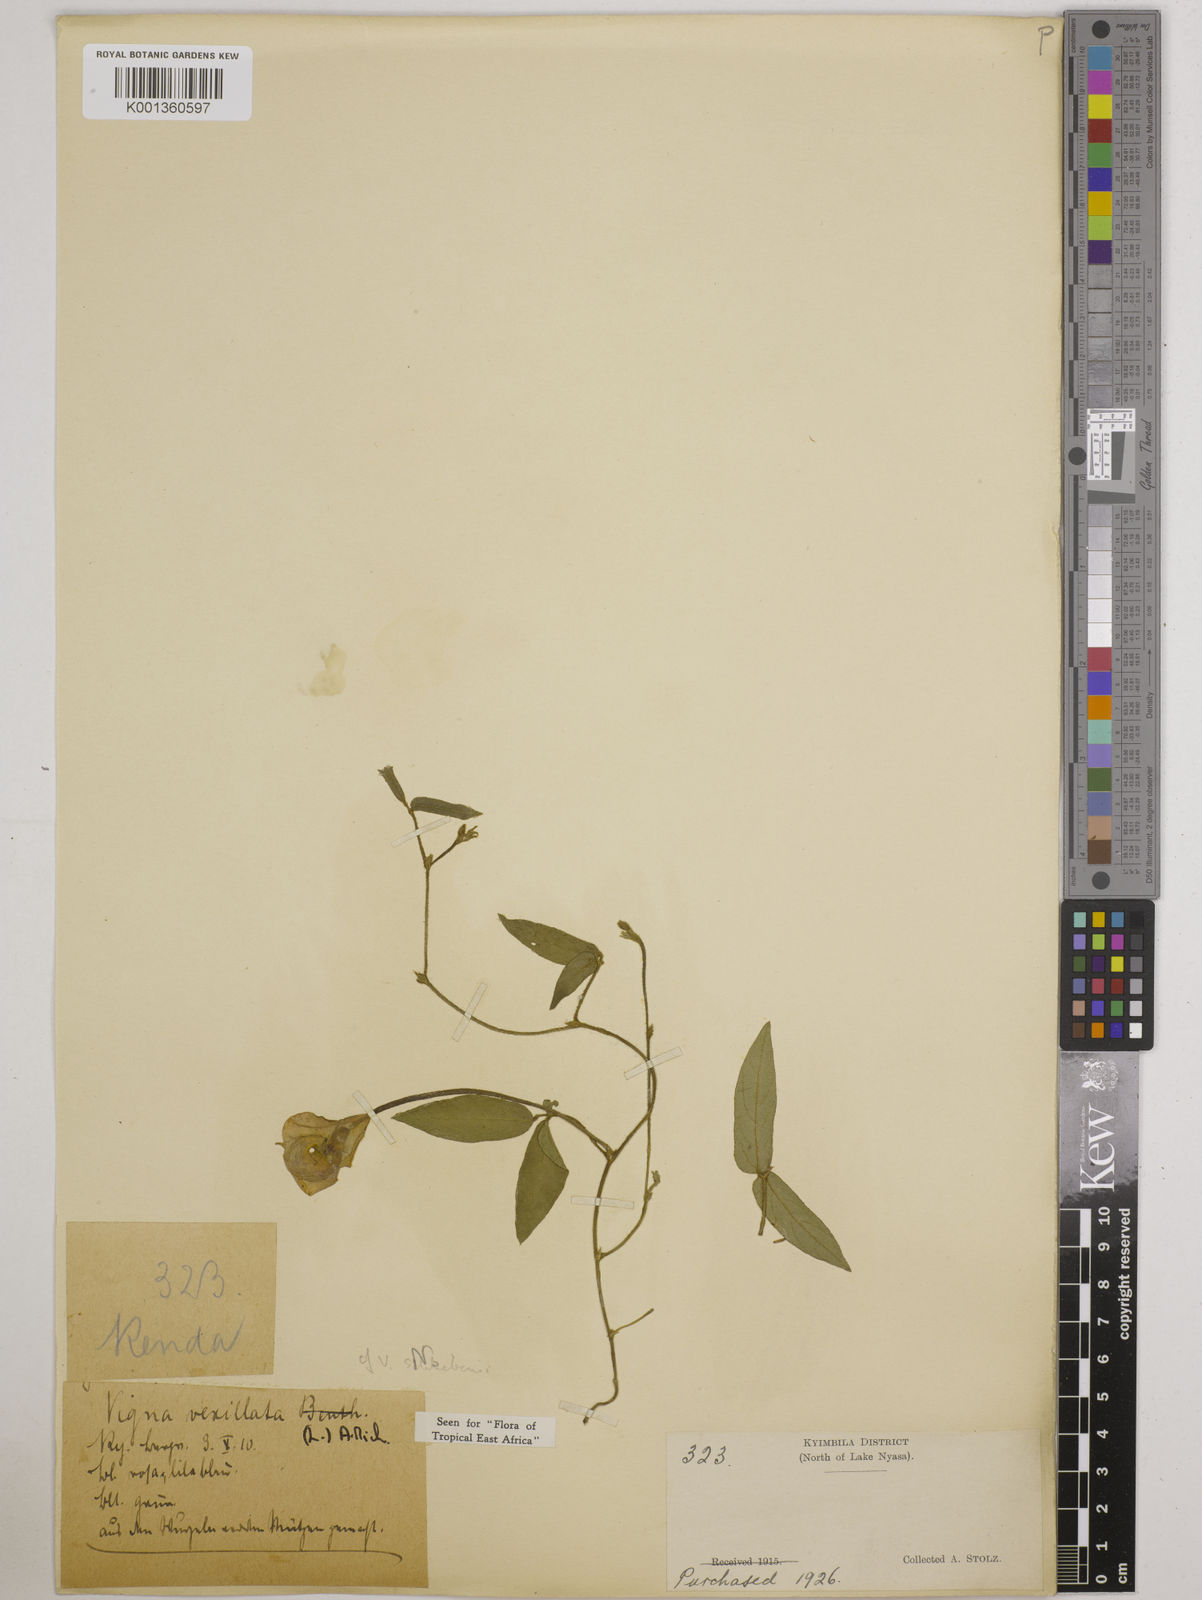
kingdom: Plantae
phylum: Tracheophyta
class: Magnoliopsida
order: Fabales
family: Fabaceae
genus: Vigna
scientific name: Vigna vexillata
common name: Zombi pea
